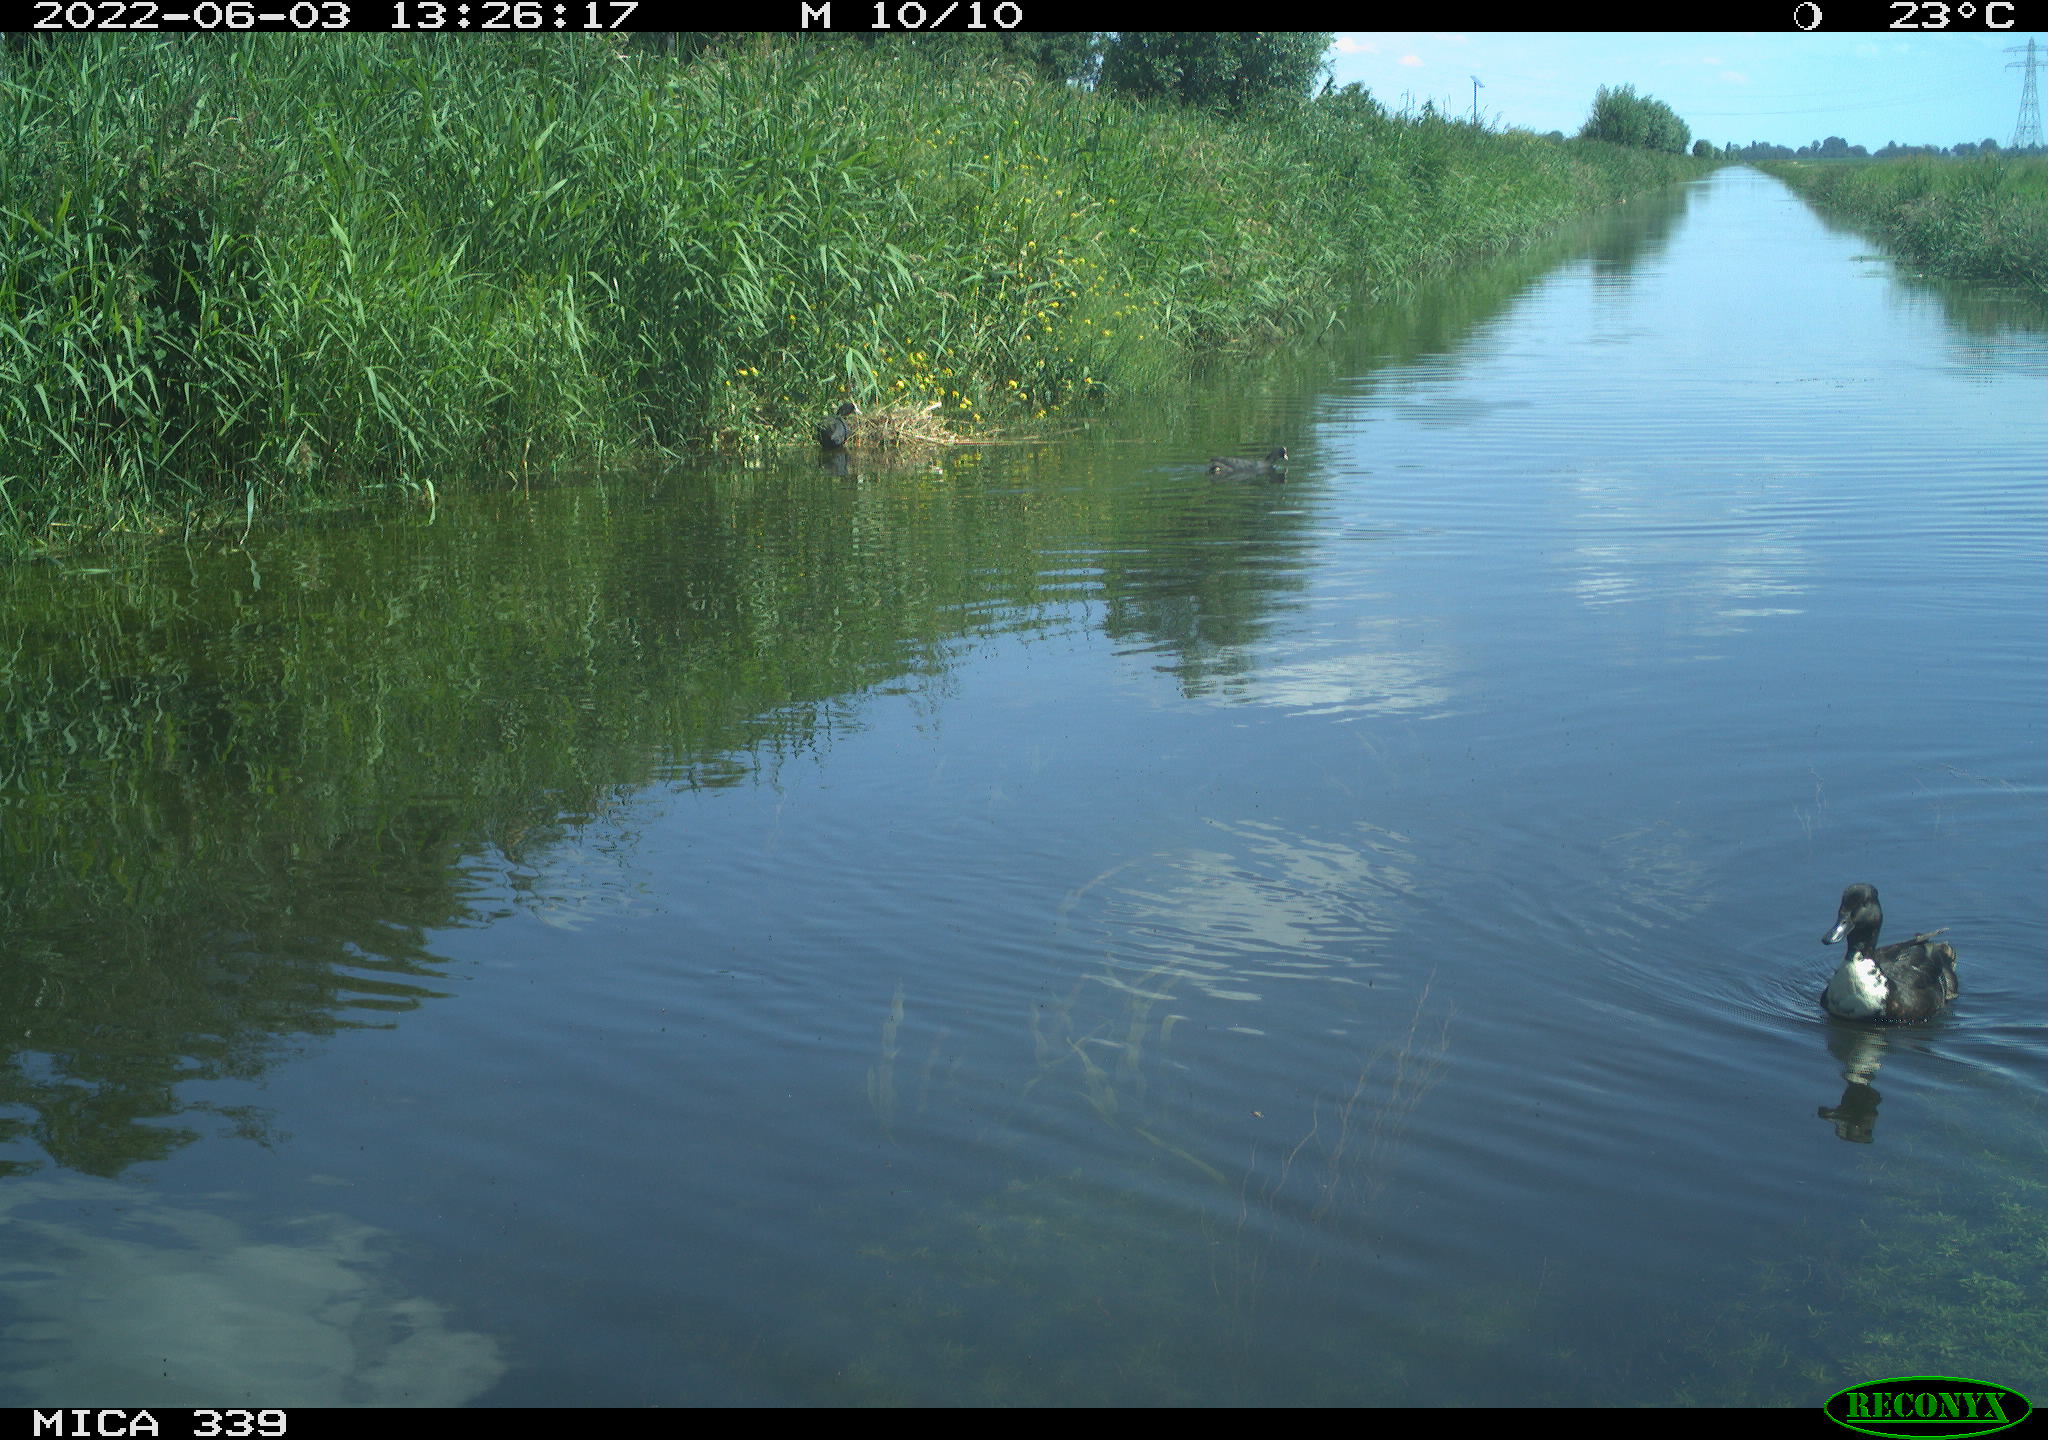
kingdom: Animalia
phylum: Chordata
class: Aves
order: Anseriformes
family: Anatidae
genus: Anas
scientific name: Anas platyrhynchos
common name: Mallard
